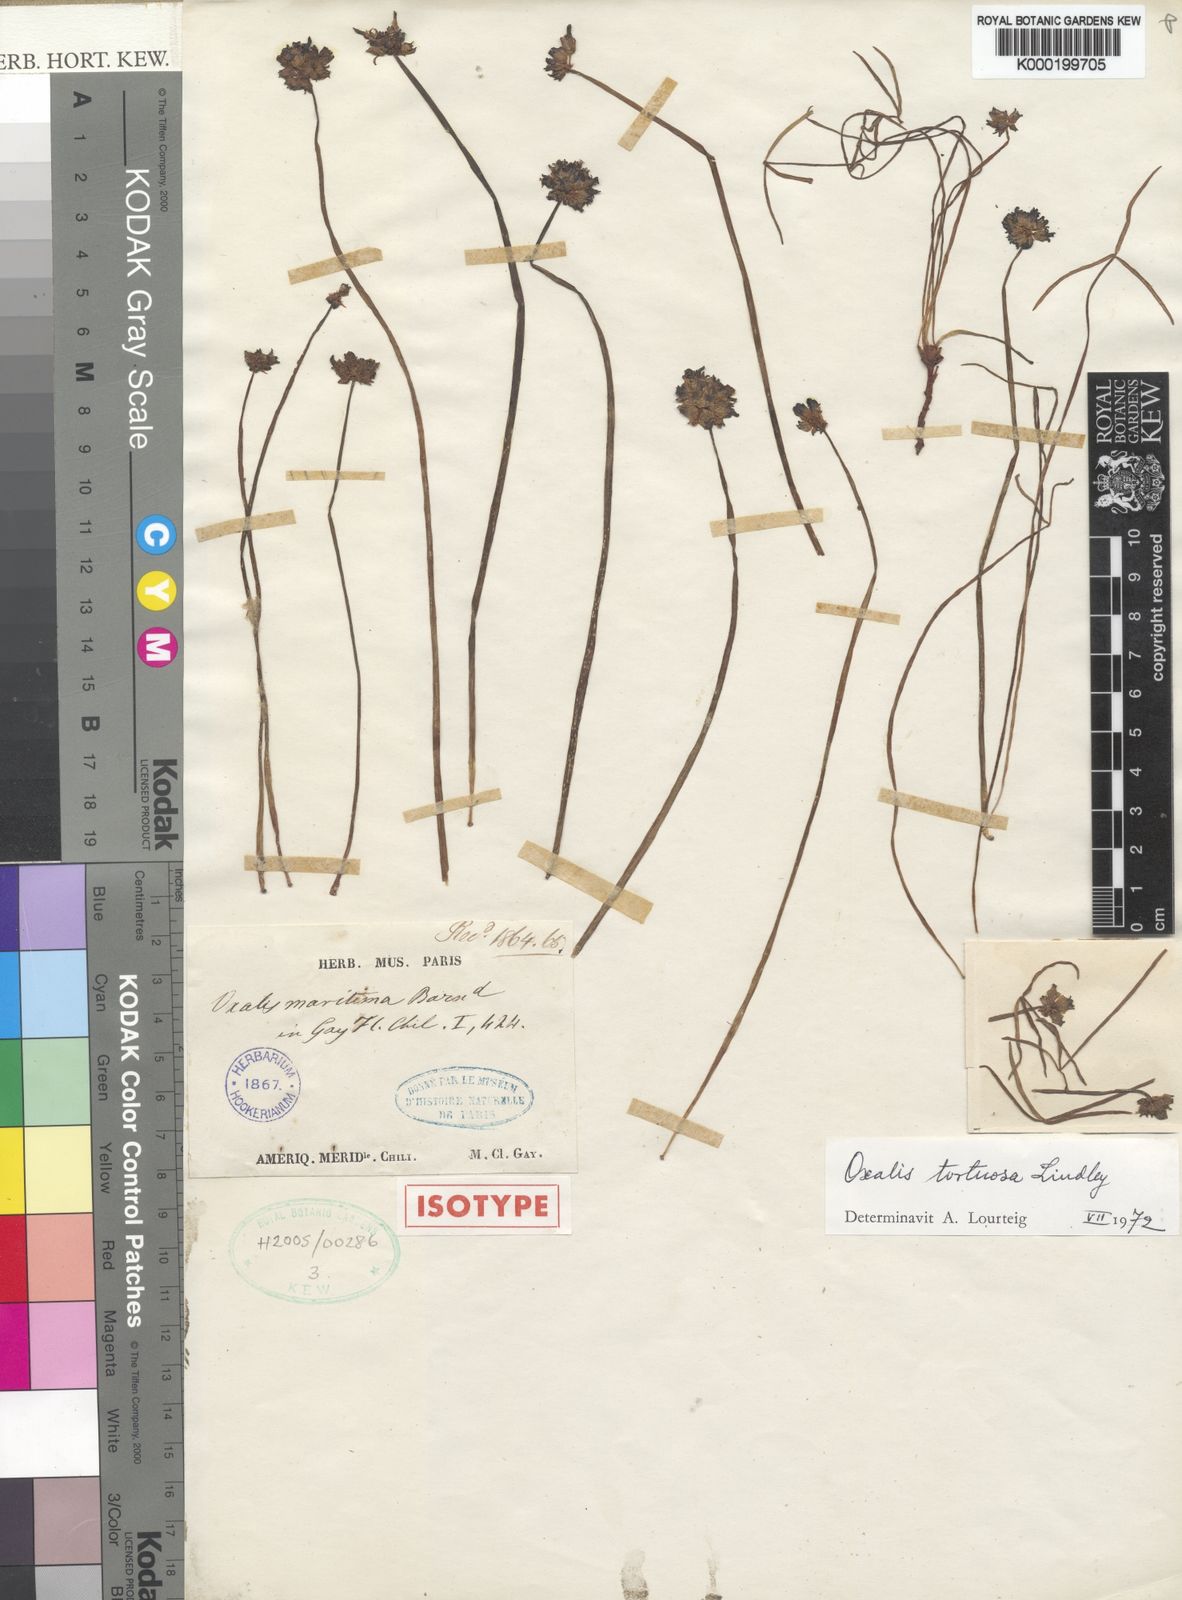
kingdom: Plantae
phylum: Tracheophyta
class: Magnoliopsida
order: Oxalidales
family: Oxalidaceae
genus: Oxalis
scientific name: Oxalis tortuosa
